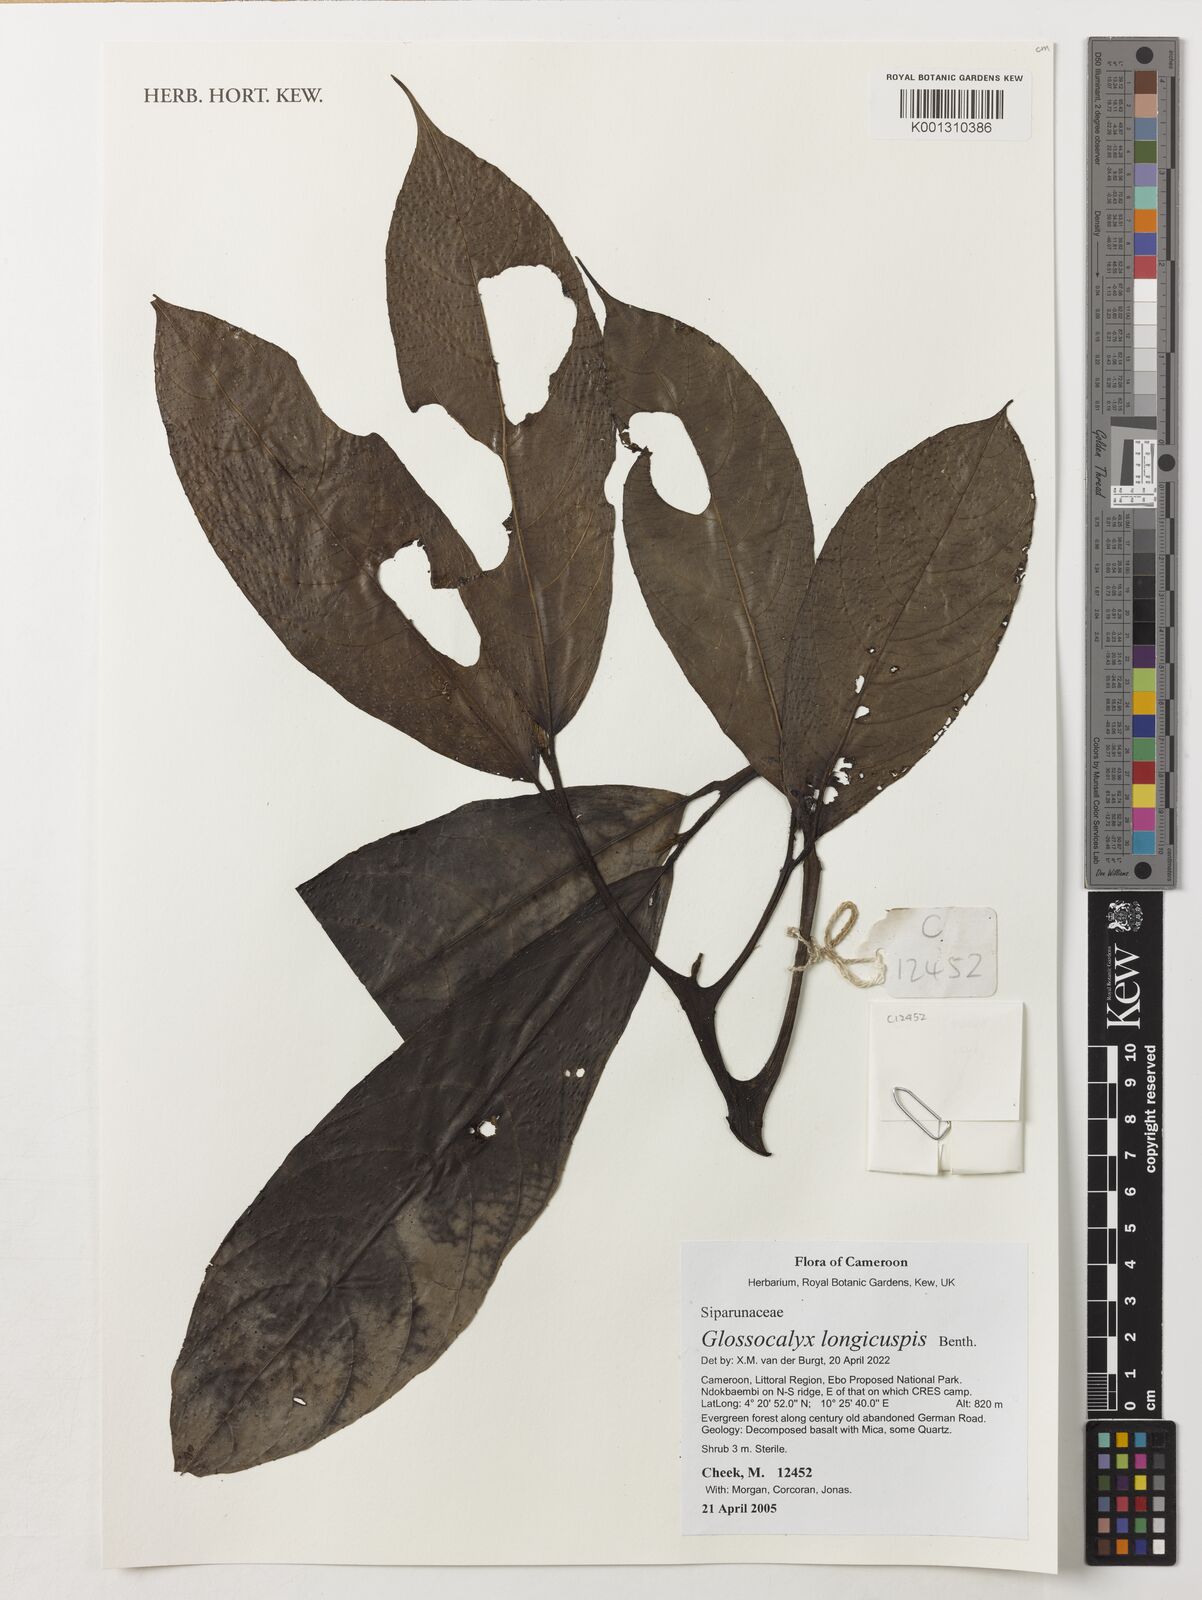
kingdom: Plantae
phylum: Tracheophyta
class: Magnoliopsida
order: Laurales
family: Siparunaceae
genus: Glossocalyx
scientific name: Glossocalyx longicuspis
